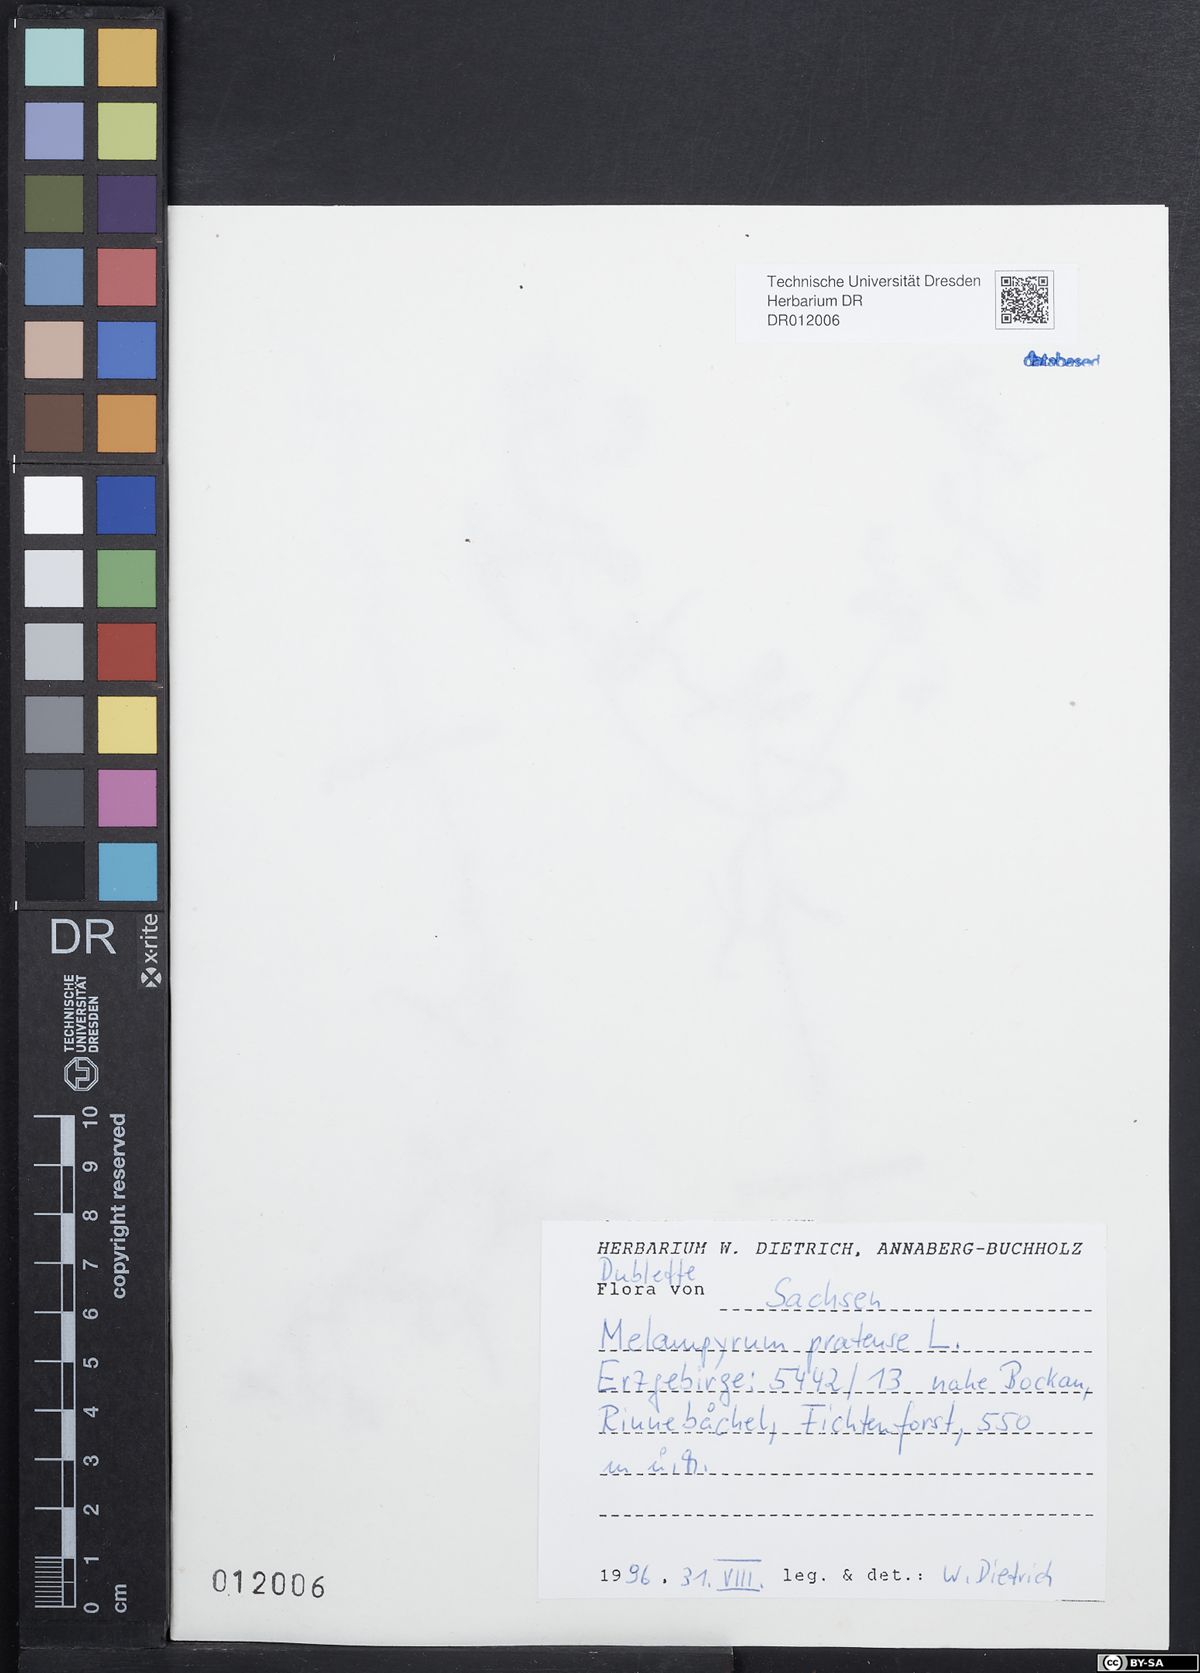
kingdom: Plantae
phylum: Tracheophyta
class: Magnoliopsida
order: Lamiales
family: Orobanchaceae
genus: Melampyrum
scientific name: Melampyrum pratense
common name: Common cow-wheat
